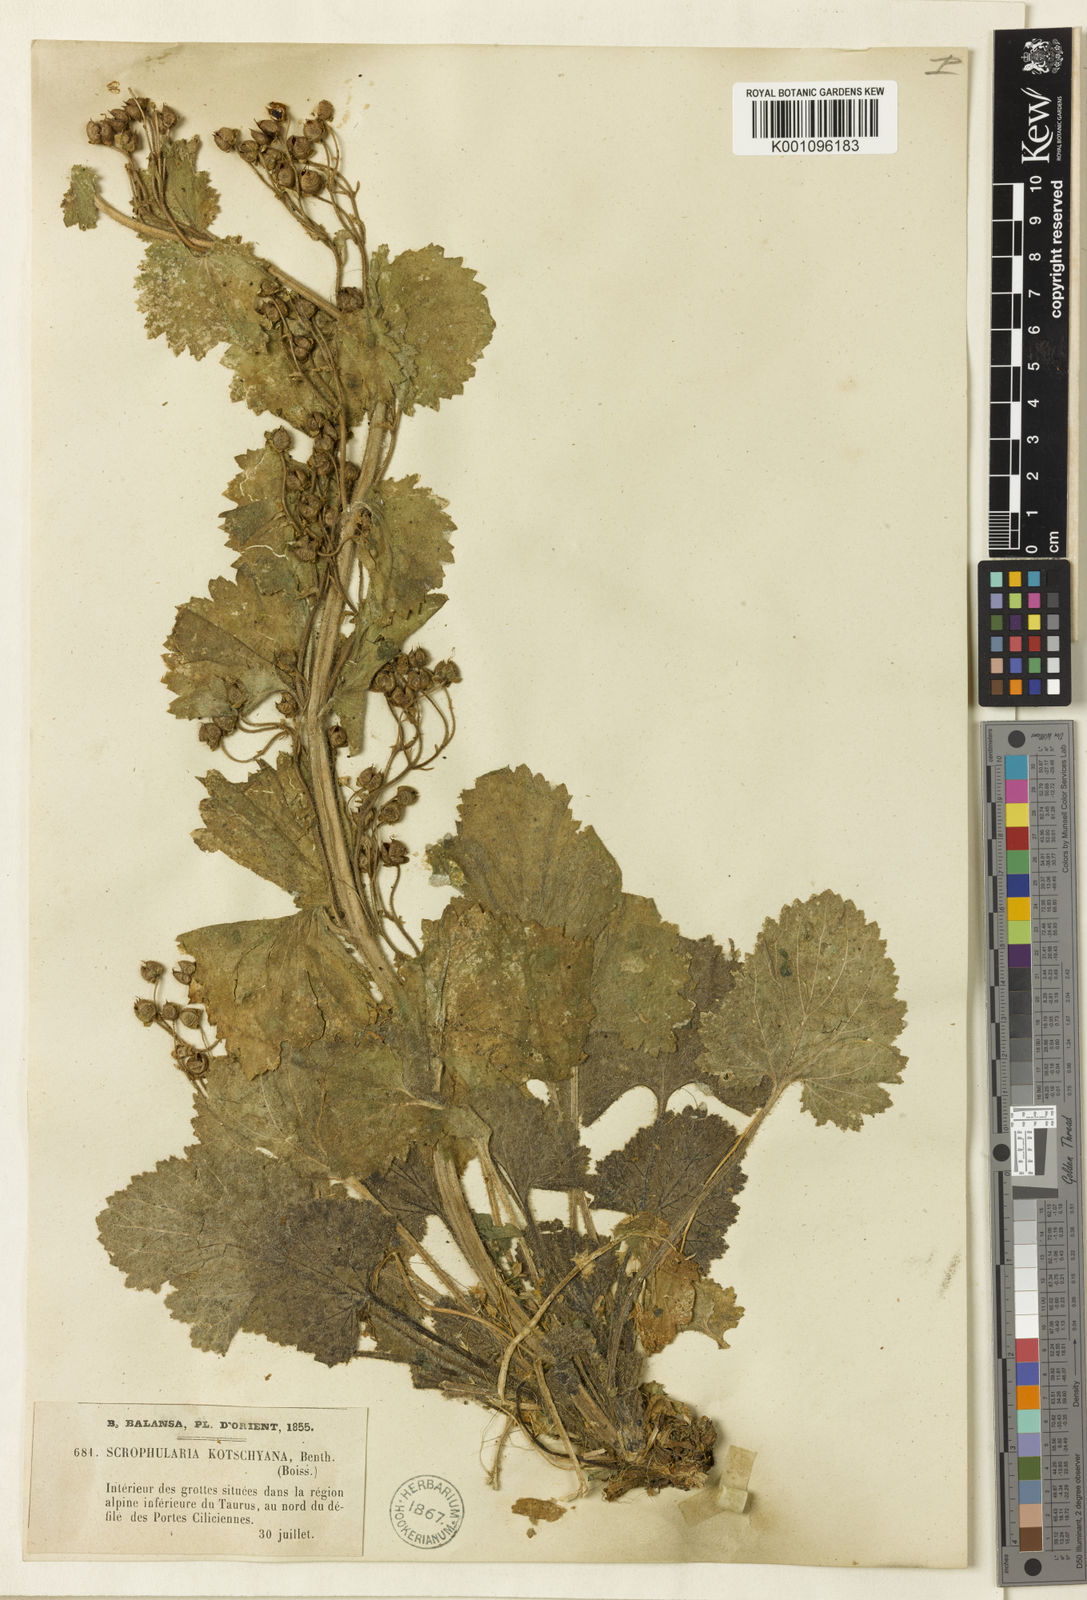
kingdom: Plantae
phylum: Tracheophyta
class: Magnoliopsida
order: Lamiales
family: Scrophulariaceae
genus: Scrophularia
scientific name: Scrophularia kotschyana
